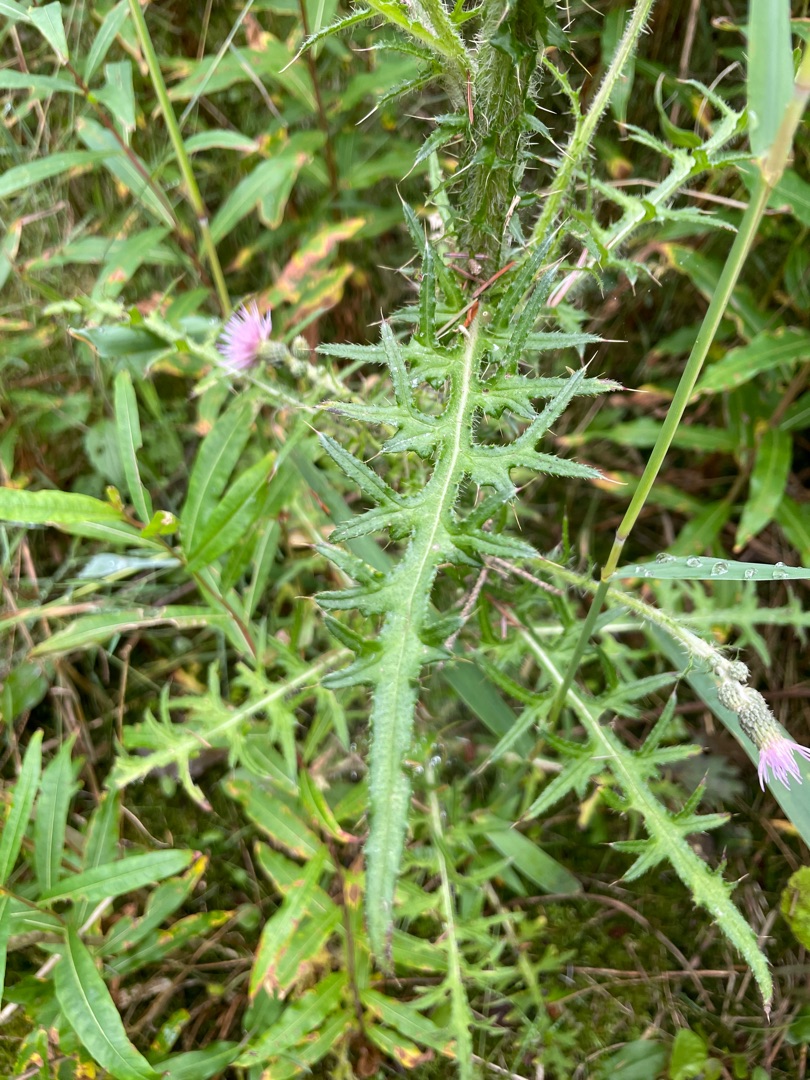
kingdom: Plantae
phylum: Tracheophyta
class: Magnoliopsida
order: Asterales
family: Asteraceae
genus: Cirsium
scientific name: Cirsium palustre
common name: Kær-tidsel
